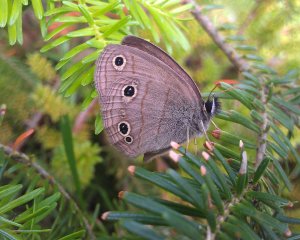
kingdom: Animalia
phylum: Arthropoda
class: Insecta
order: Lepidoptera
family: Nymphalidae
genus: Euptychia
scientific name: Euptychia cymela
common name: Little Wood Satyr
